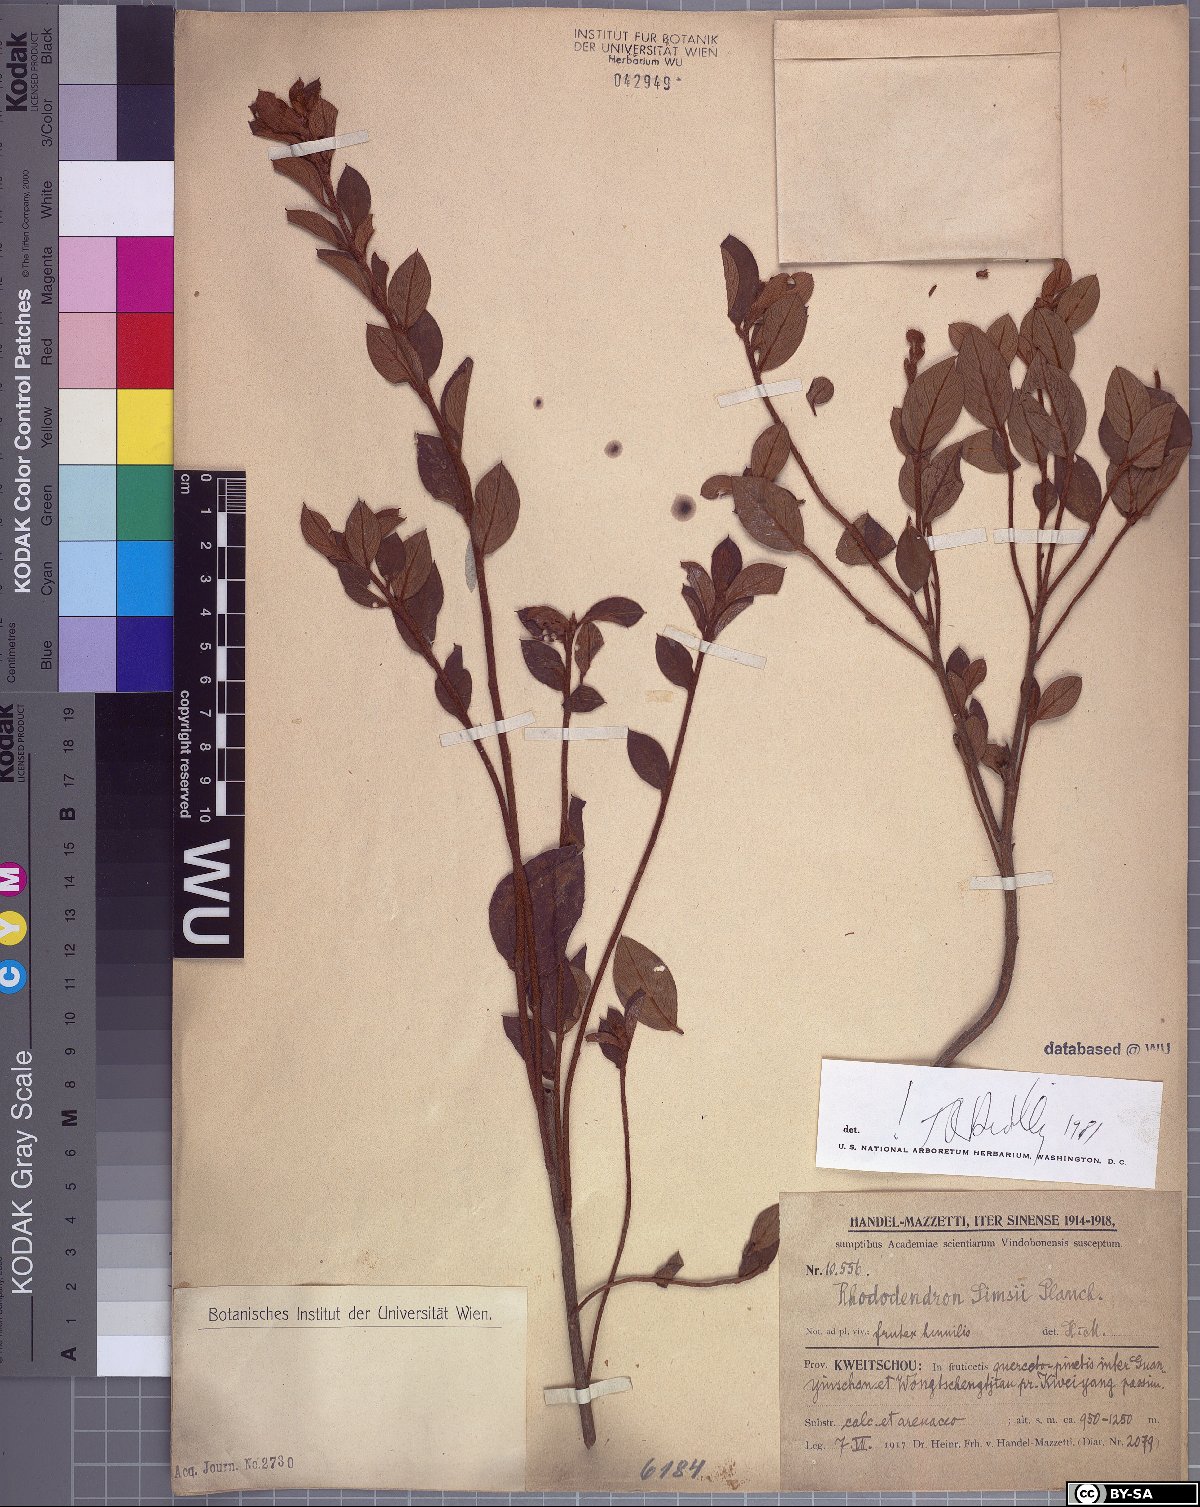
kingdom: Plantae
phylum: Tracheophyta
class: Magnoliopsida
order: Ericales
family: Ericaceae
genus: Rhododendron
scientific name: Rhododendron simsii
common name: Rhododendron
